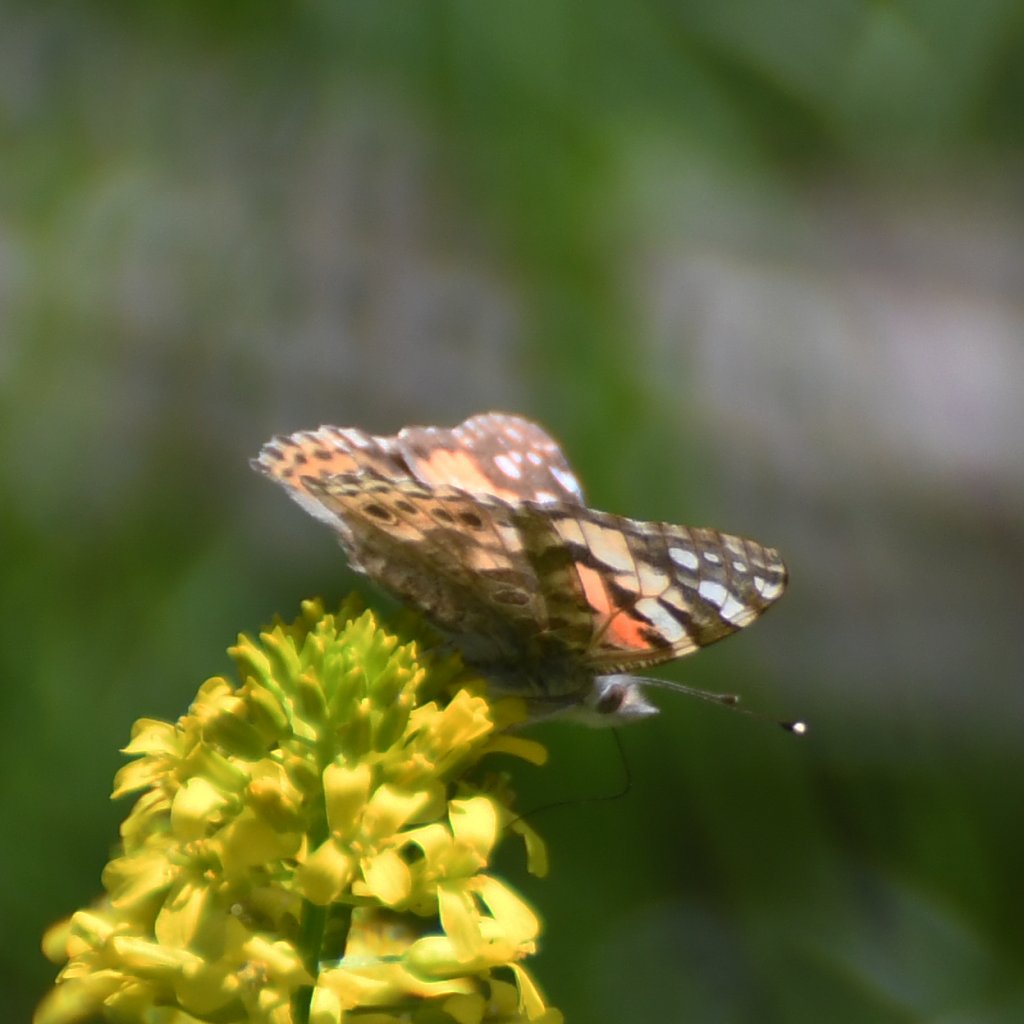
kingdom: Animalia
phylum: Arthropoda
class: Insecta
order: Lepidoptera
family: Nymphalidae
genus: Vanessa
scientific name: Vanessa cardui
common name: Painted Lady
